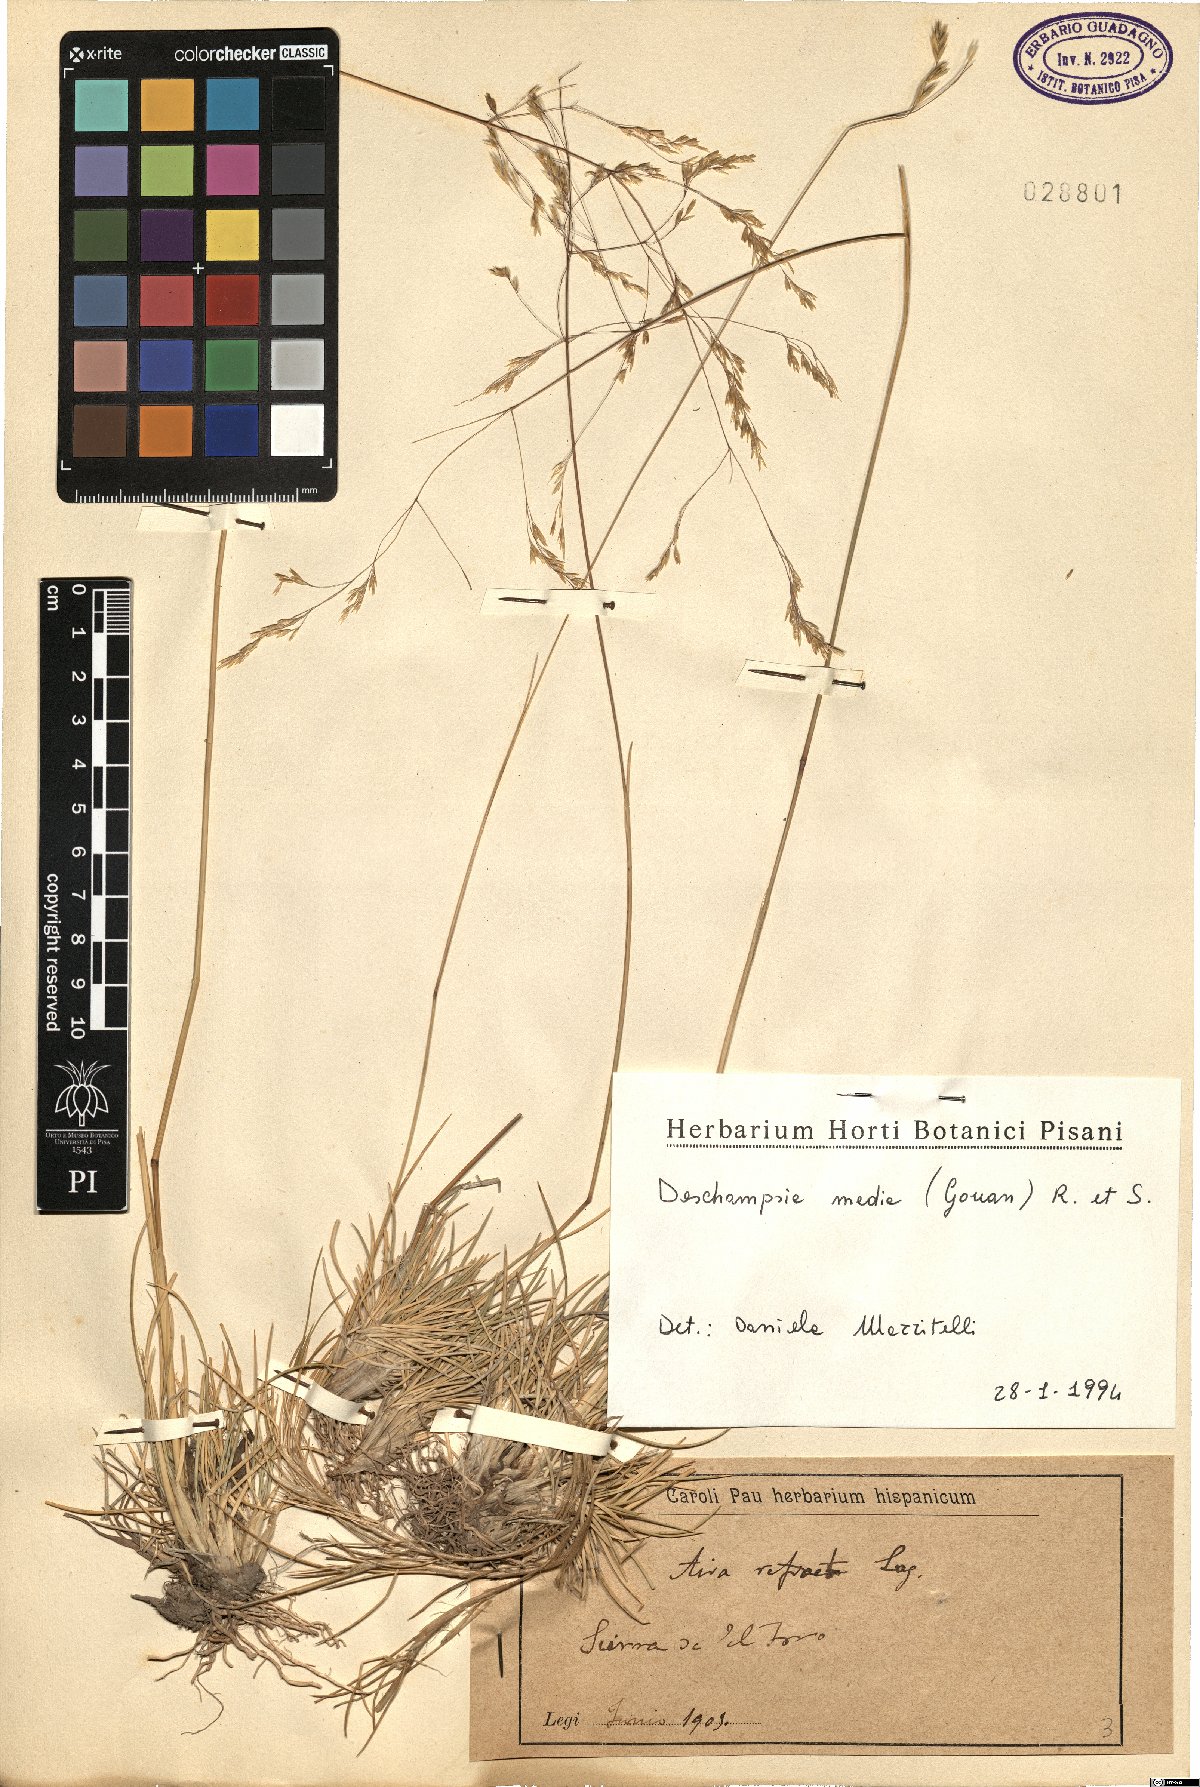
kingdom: Plantae
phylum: Tracheophyta
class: Liliopsida
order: Poales
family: Poaceae
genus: Deschampsia
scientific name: Deschampsia media
